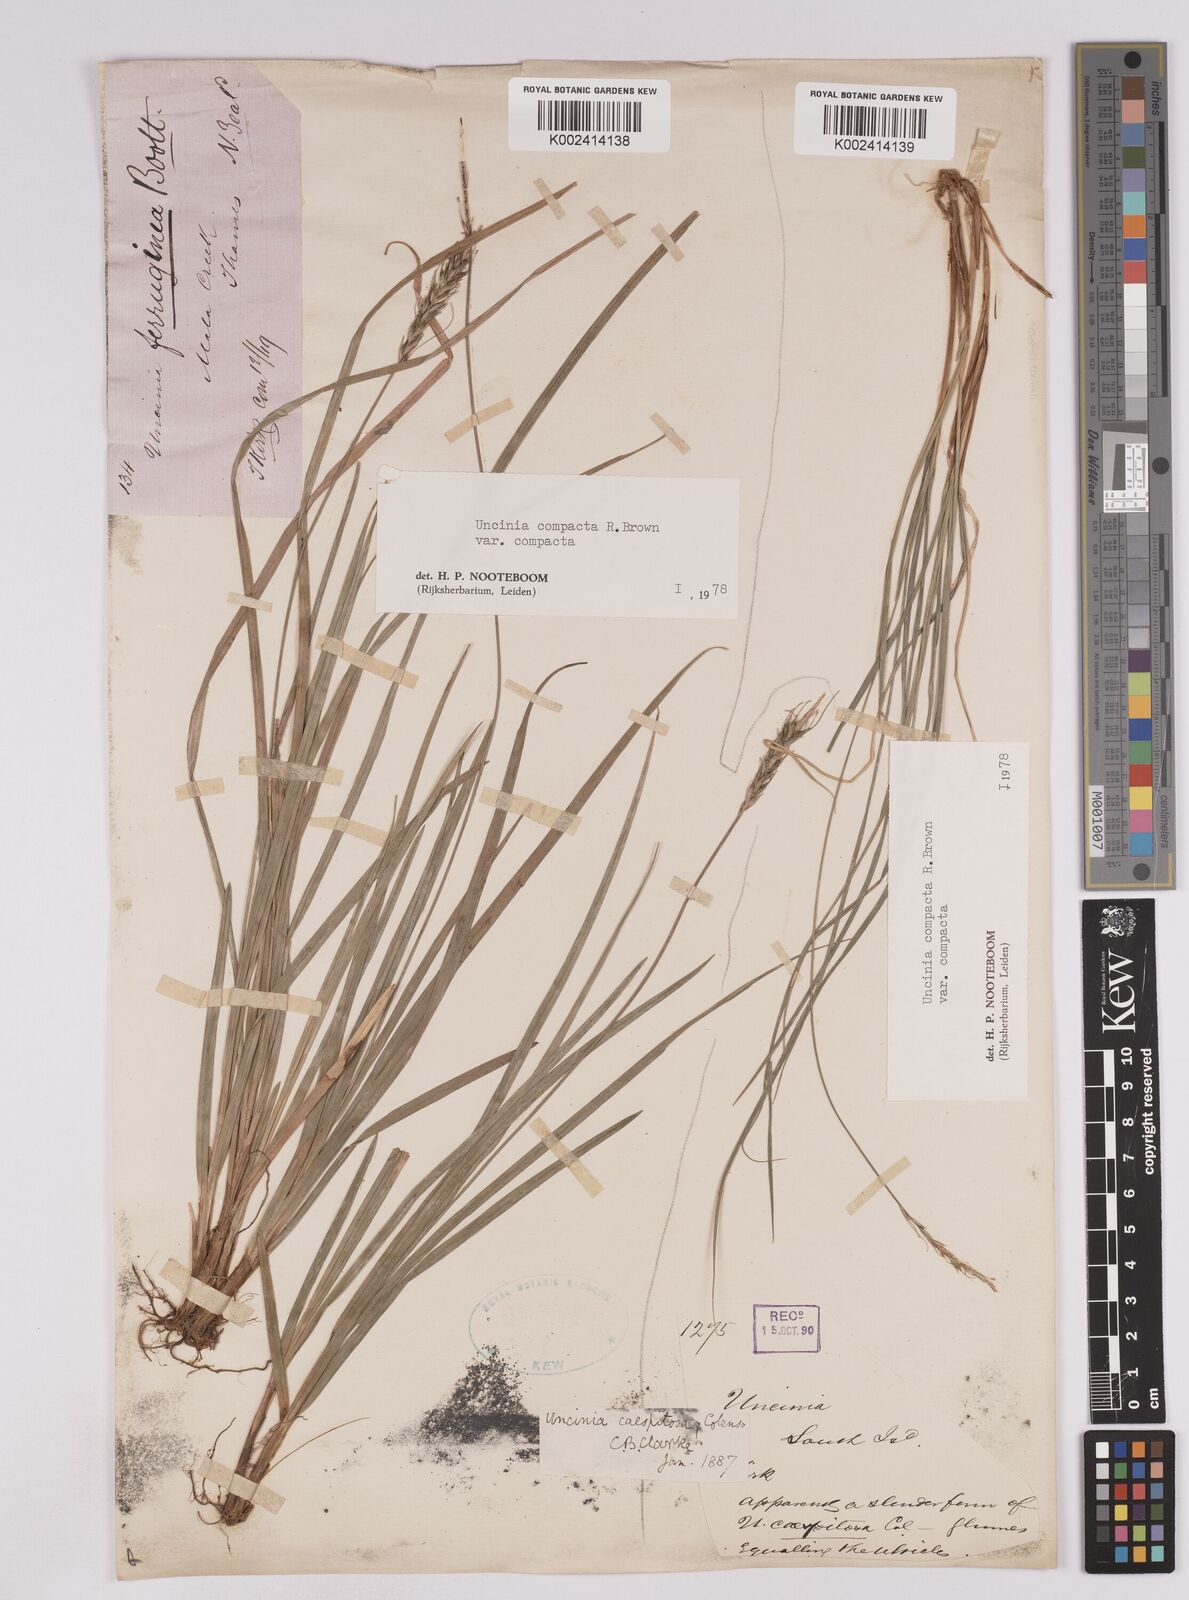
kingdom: Plantae
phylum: Tracheophyta
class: Liliopsida
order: Poales
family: Cyperaceae
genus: Carex
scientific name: Carex austrocompacta
